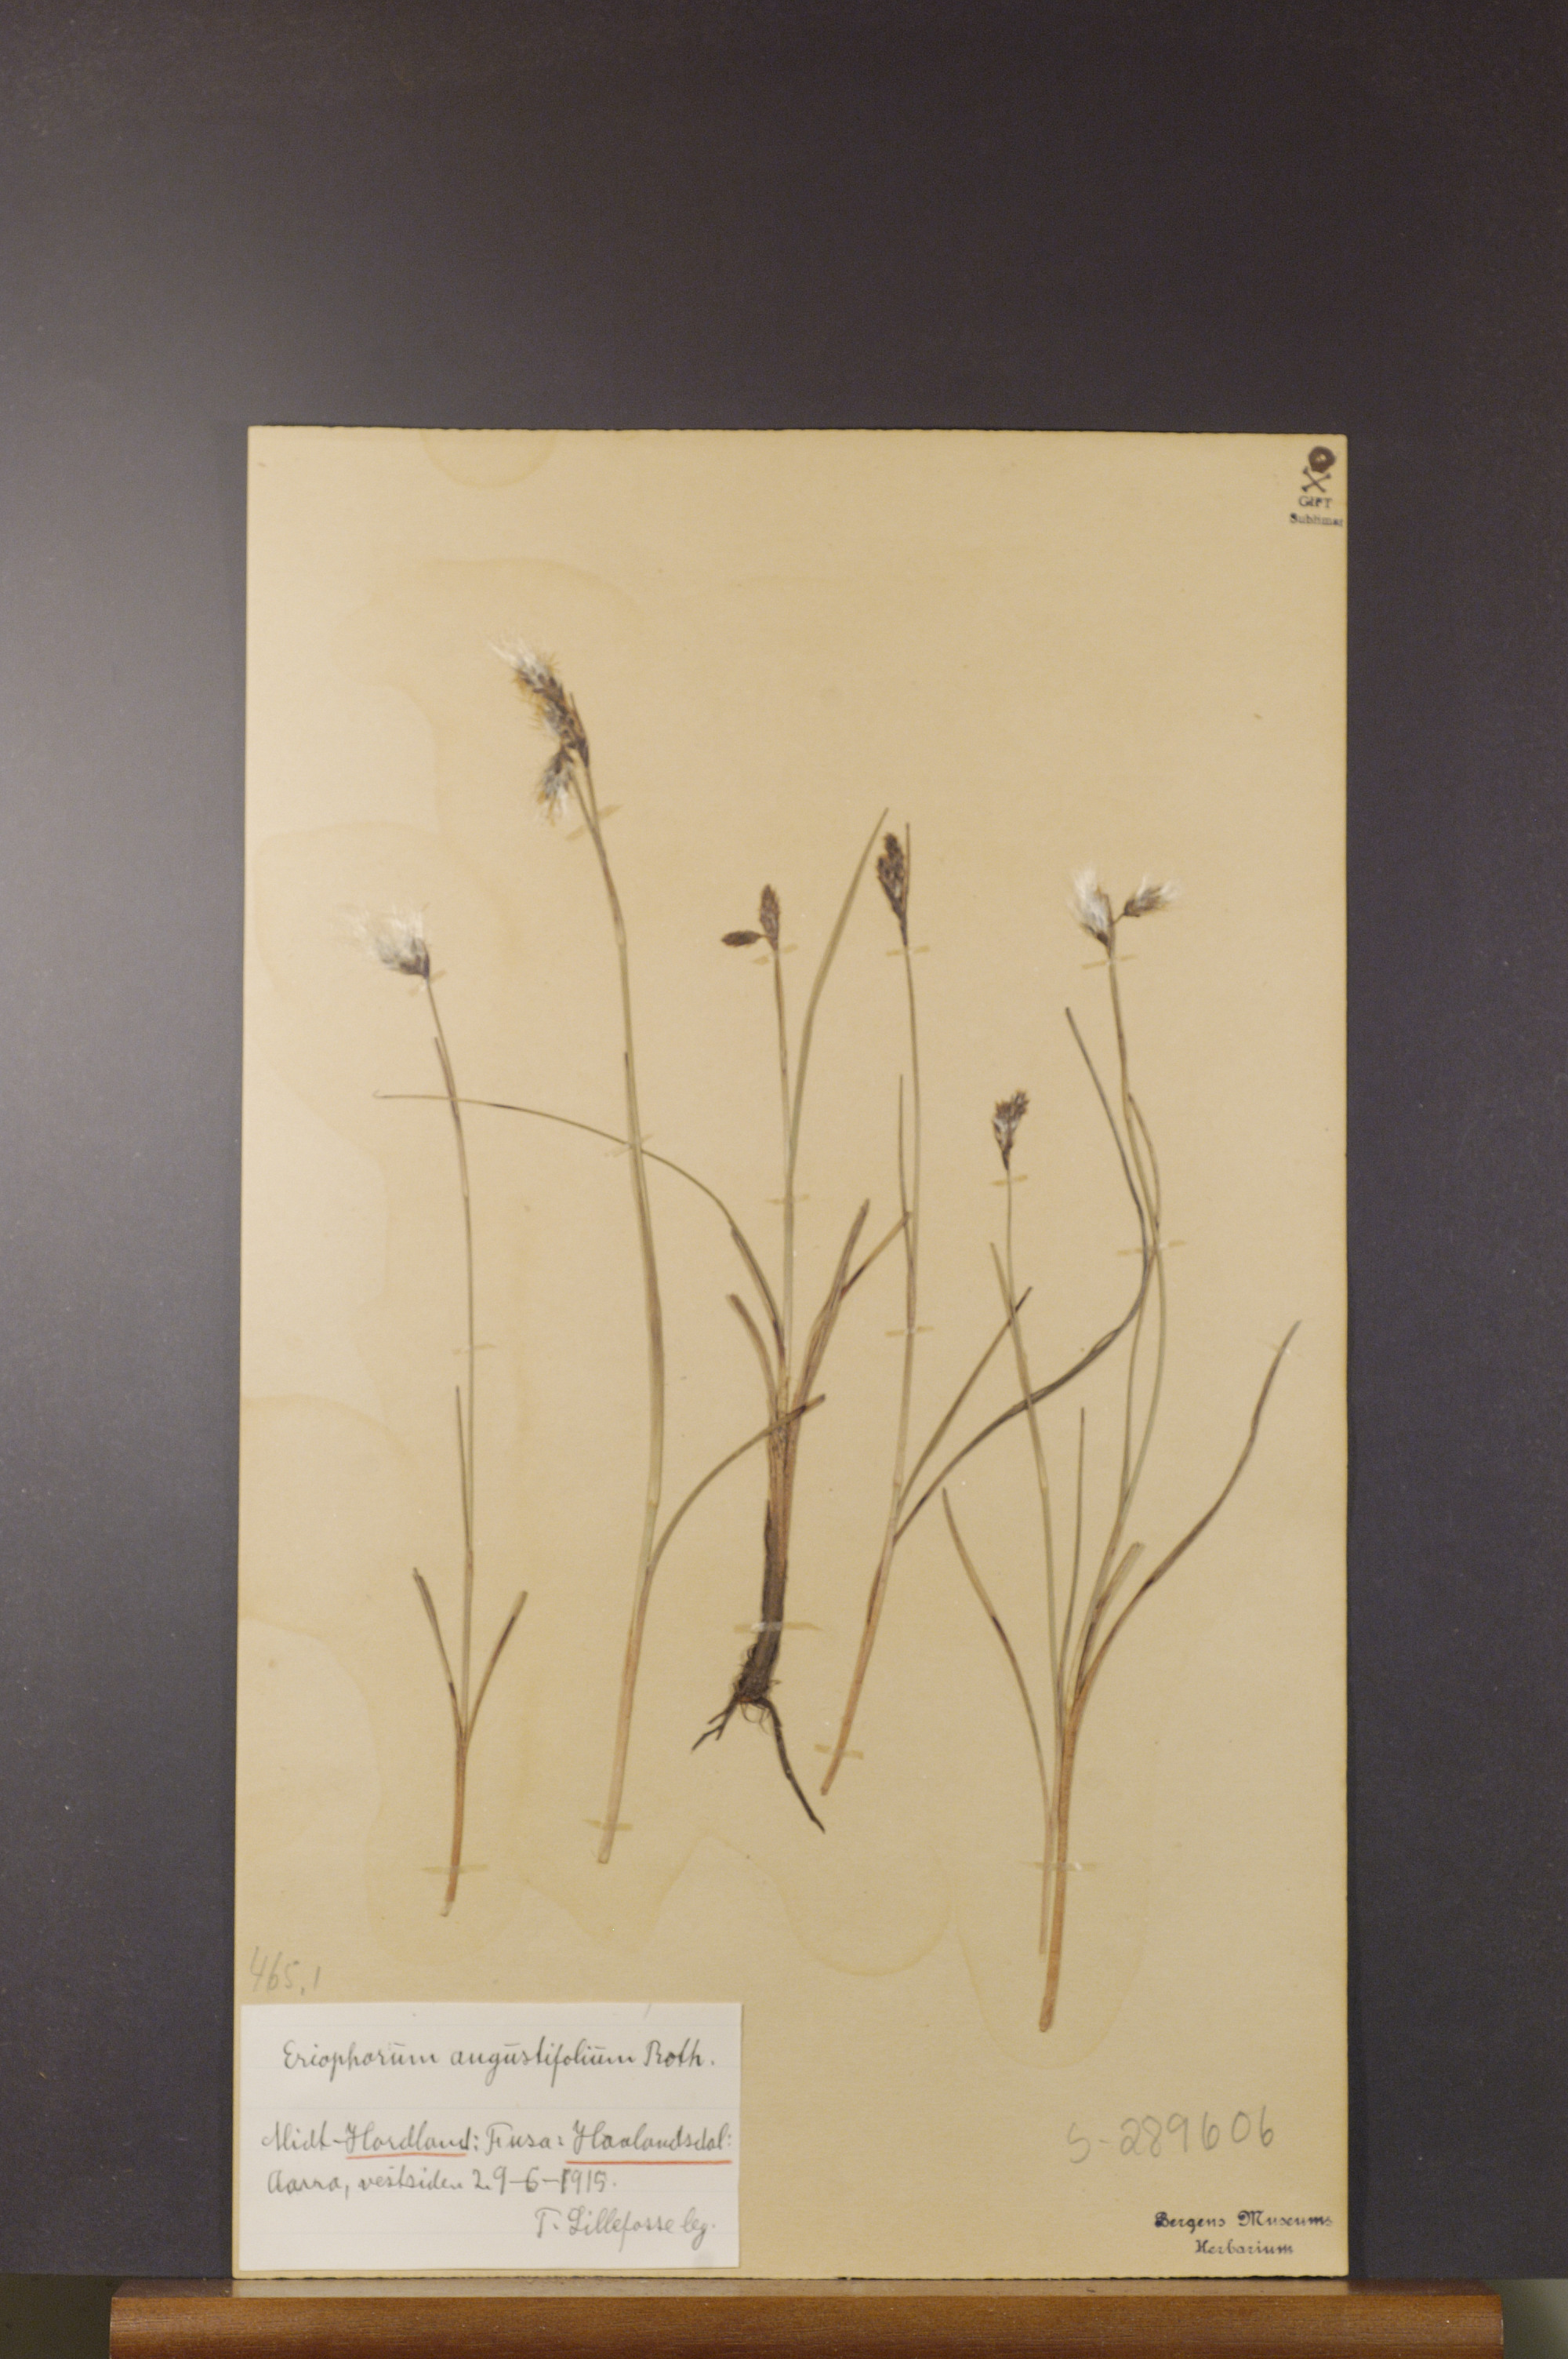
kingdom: Plantae
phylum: Tracheophyta
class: Liliopsida
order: Poales
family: Cyperaceae
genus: Eriophorum
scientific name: Eriophorum angustifolium
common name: Common cottongrass
